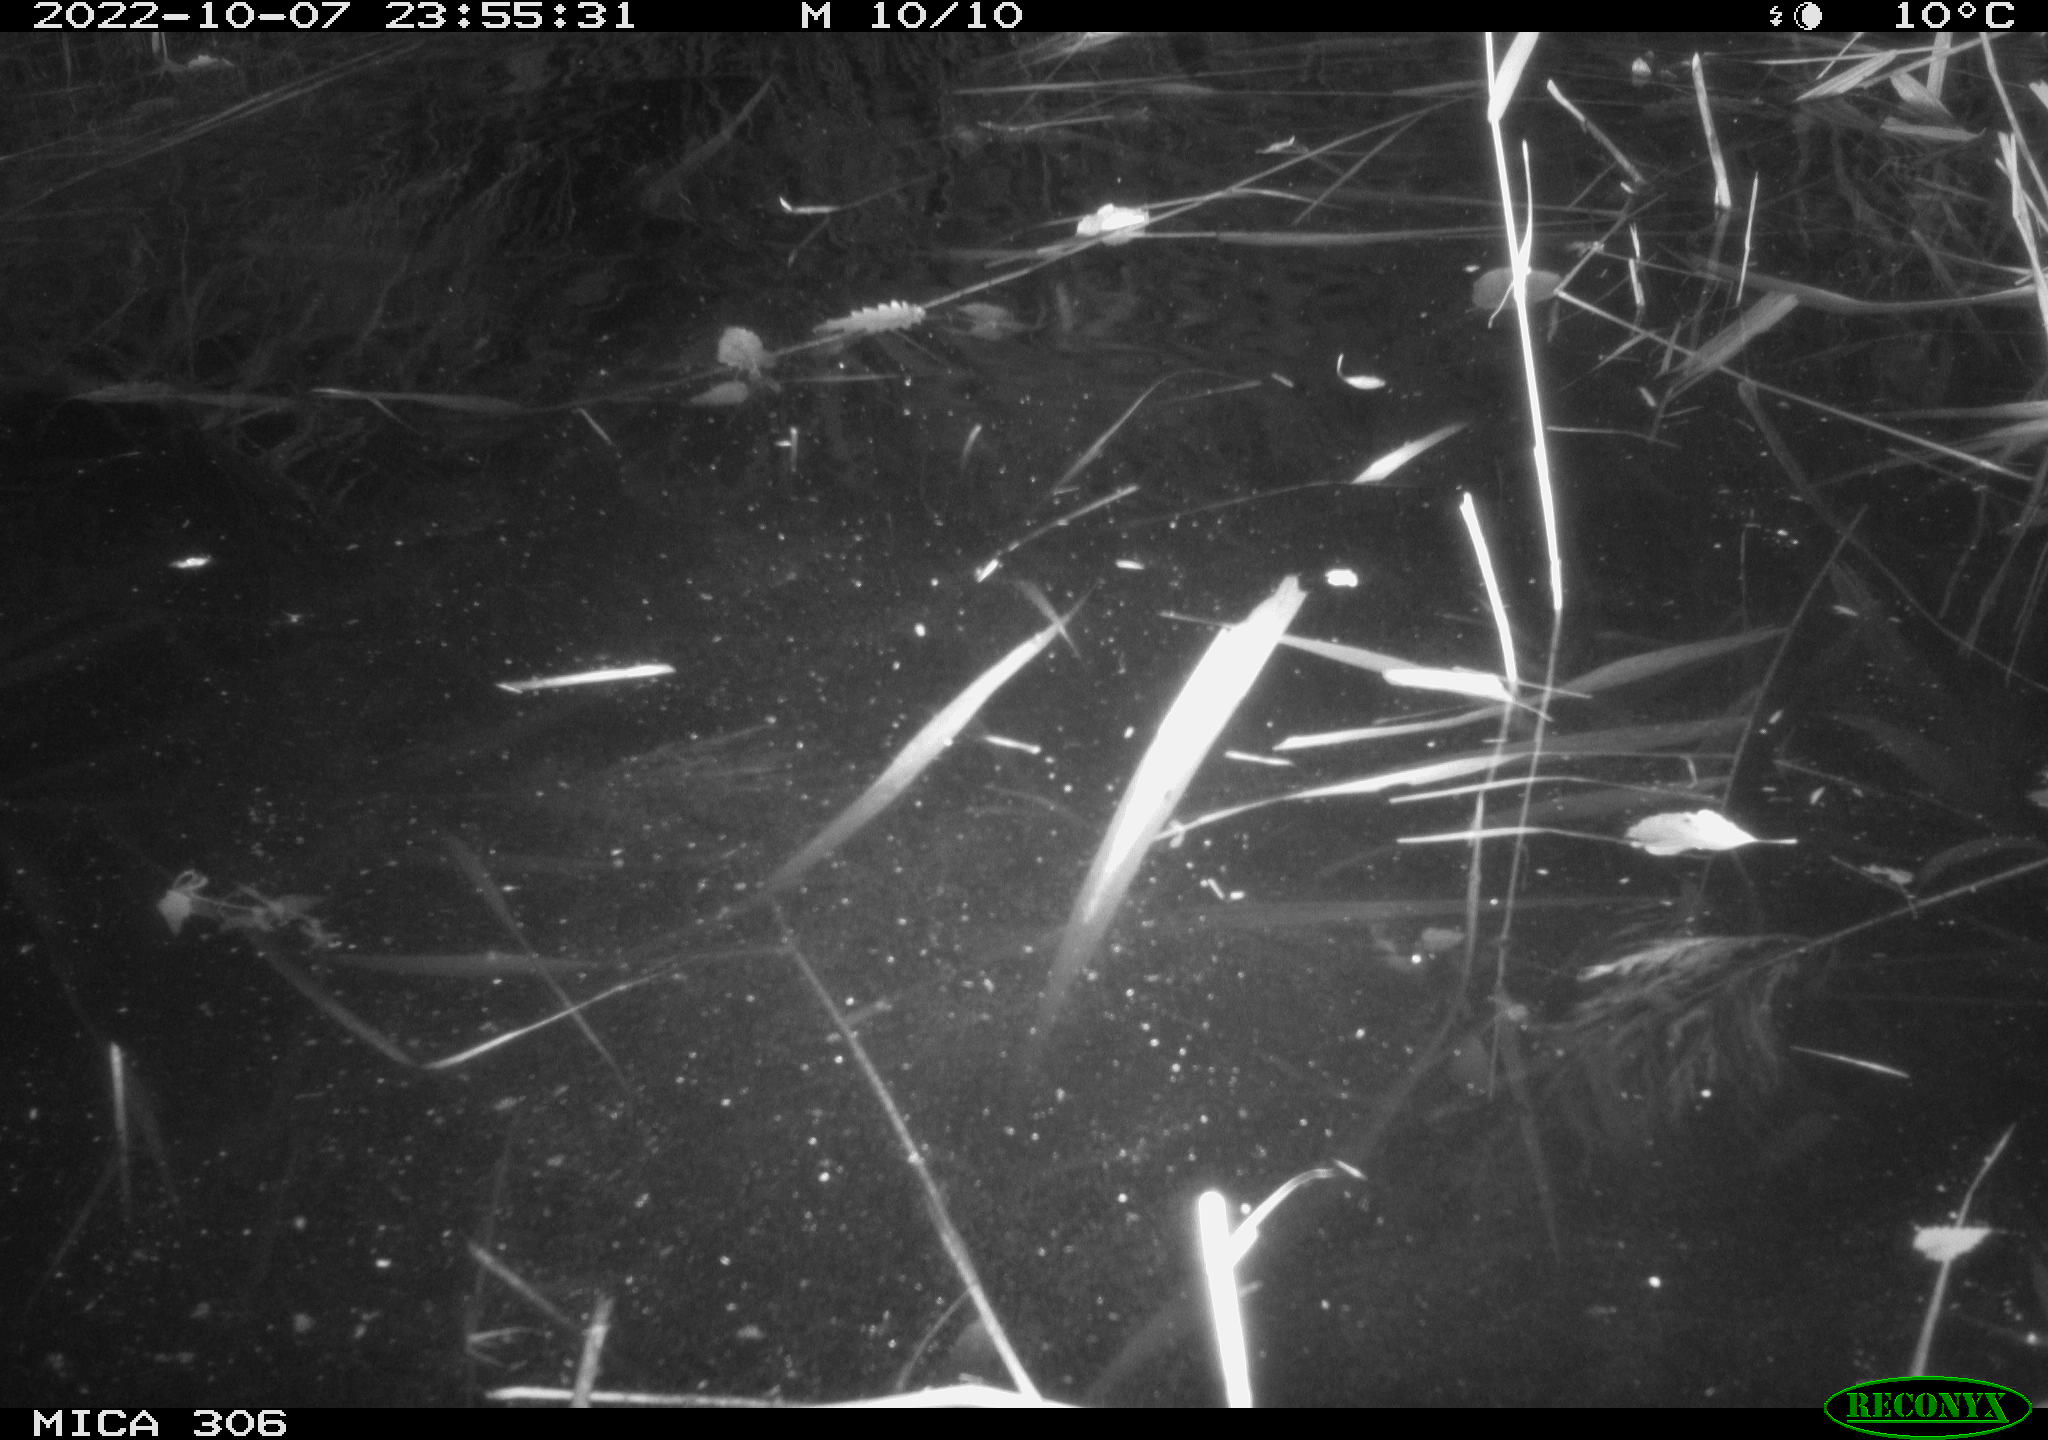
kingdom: Animalia
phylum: Chordata
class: Mammalia
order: Rodentia
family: Muridae
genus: Rattus
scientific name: Rattus norvegicus
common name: Brown rat
